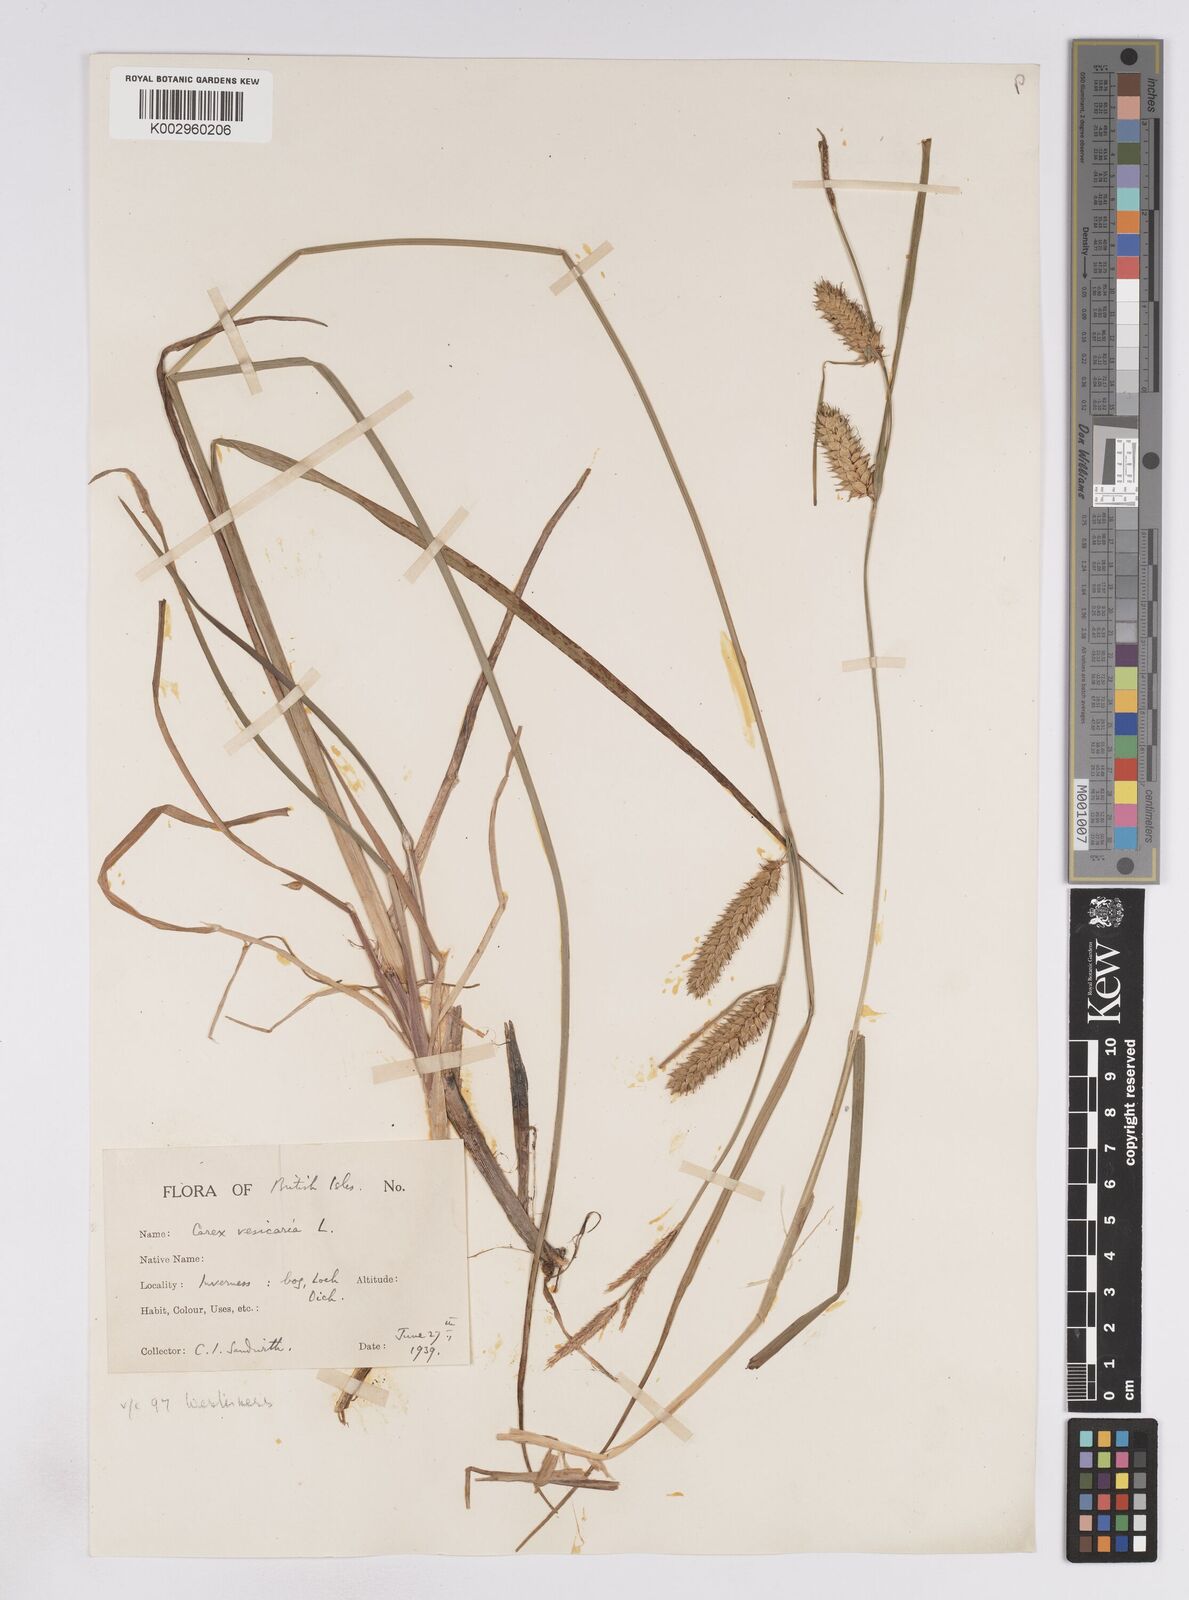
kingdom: Plantae
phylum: Tracheophyta
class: Liliopsida
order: Poales
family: Cyperaceae
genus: Carex
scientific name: Carex vesicaria
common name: Bladder-sedge
